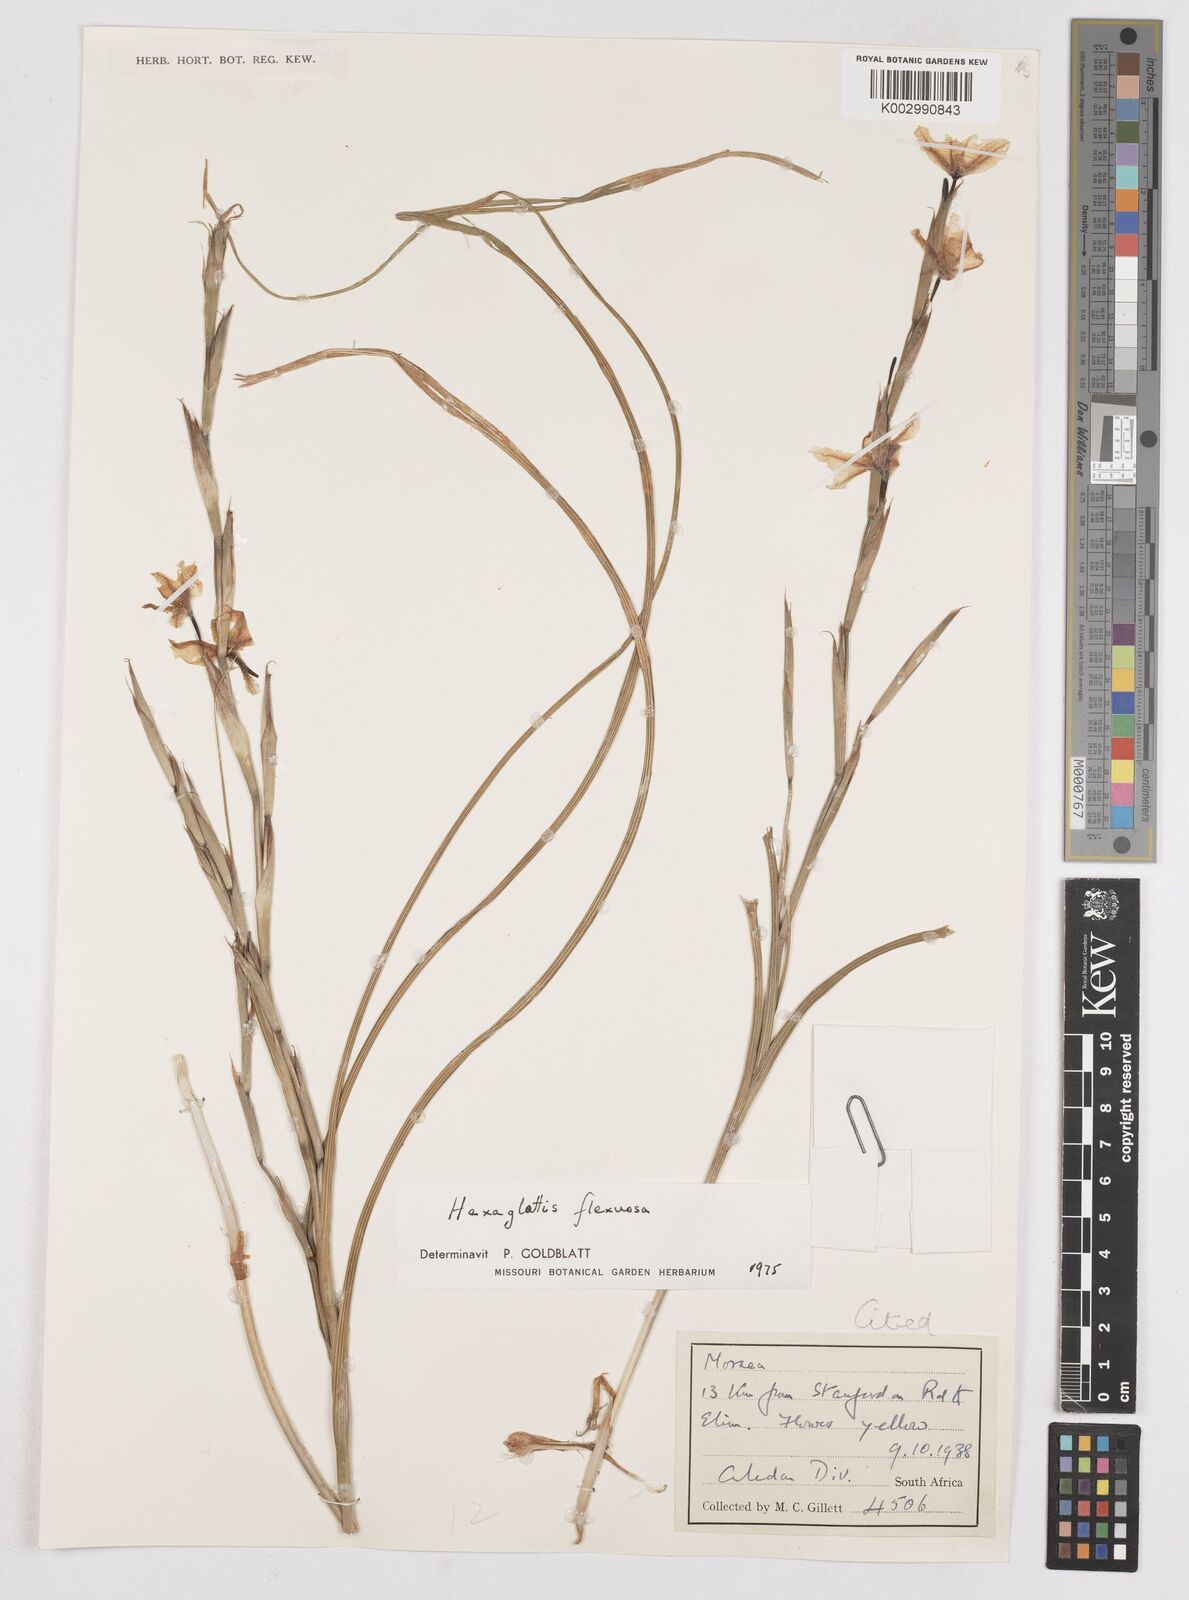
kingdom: Plantae
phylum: Tracheophyta
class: Liliopsida
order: Asparagales
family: Iridaceae
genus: Moraea
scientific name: Moraea lewisiae
